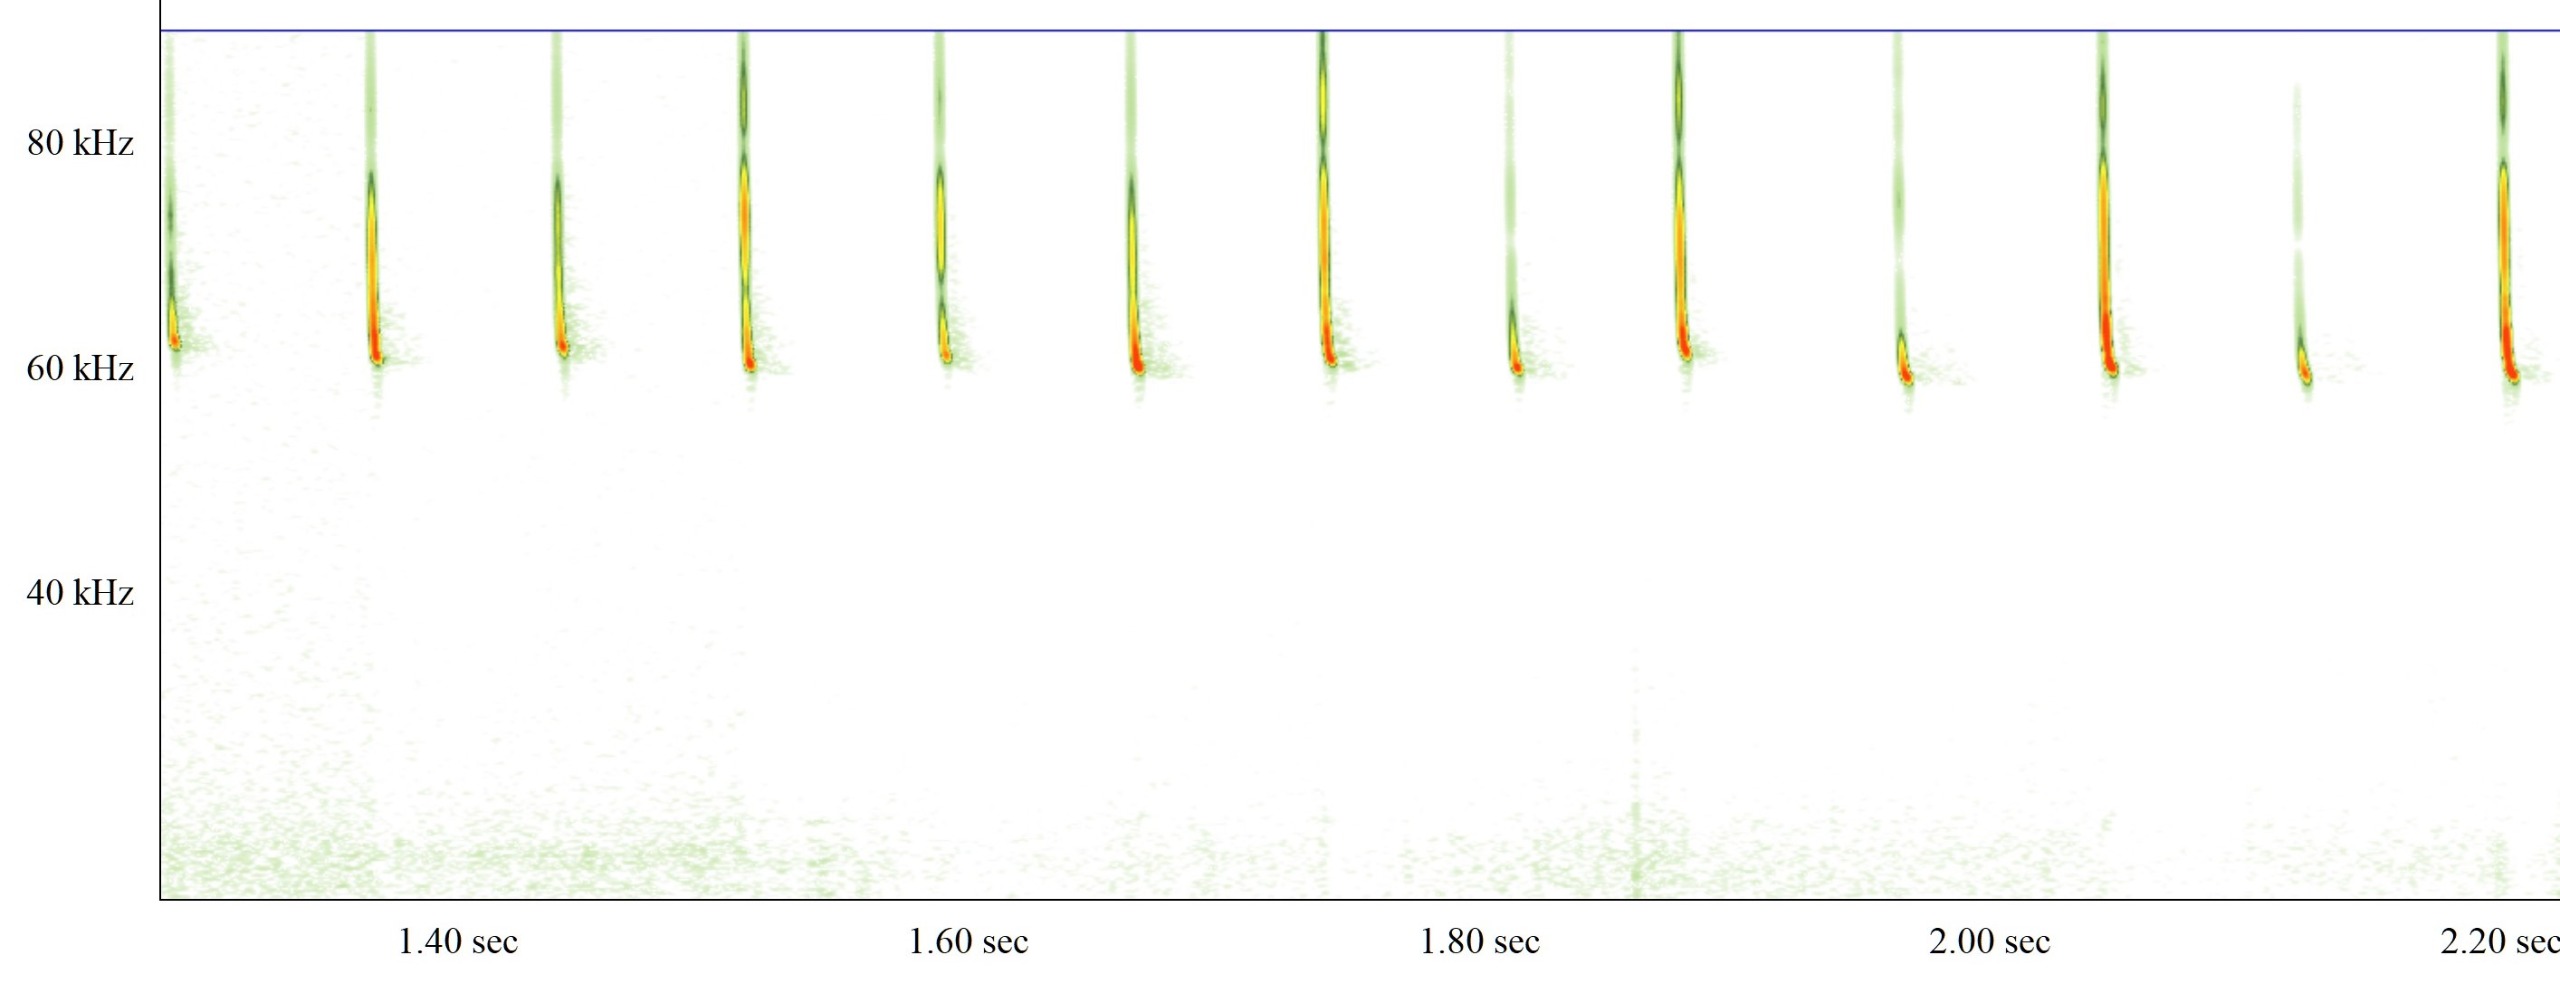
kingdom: Animalia
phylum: Chordata
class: Mammalia
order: Chiroptera
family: Vespertilionidae
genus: Pipistrellus
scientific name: Pipistrellus pygmaeus
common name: Dværgflagermus
